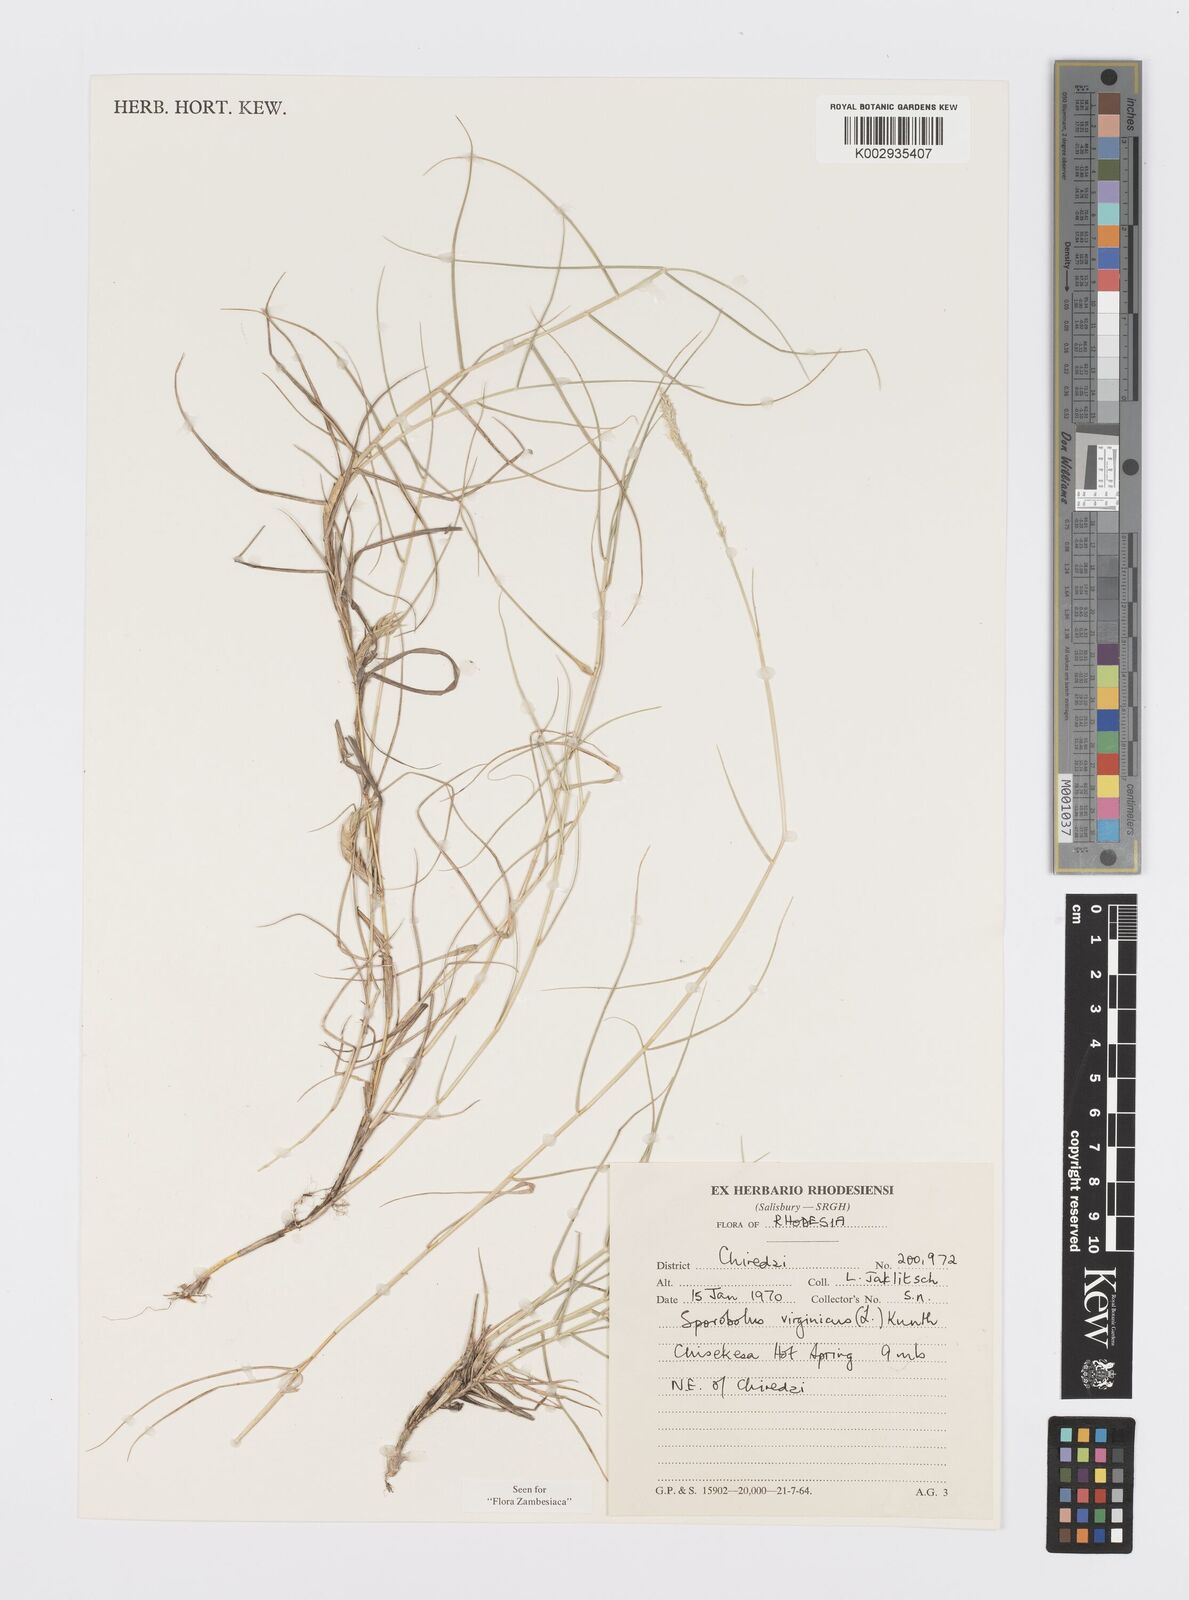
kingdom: Plantae
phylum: Tracheophyta
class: Liliopsida
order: Poales
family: Poaceae
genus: Sporobolus
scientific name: Sporobolus virginicus
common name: Beach dropseed
